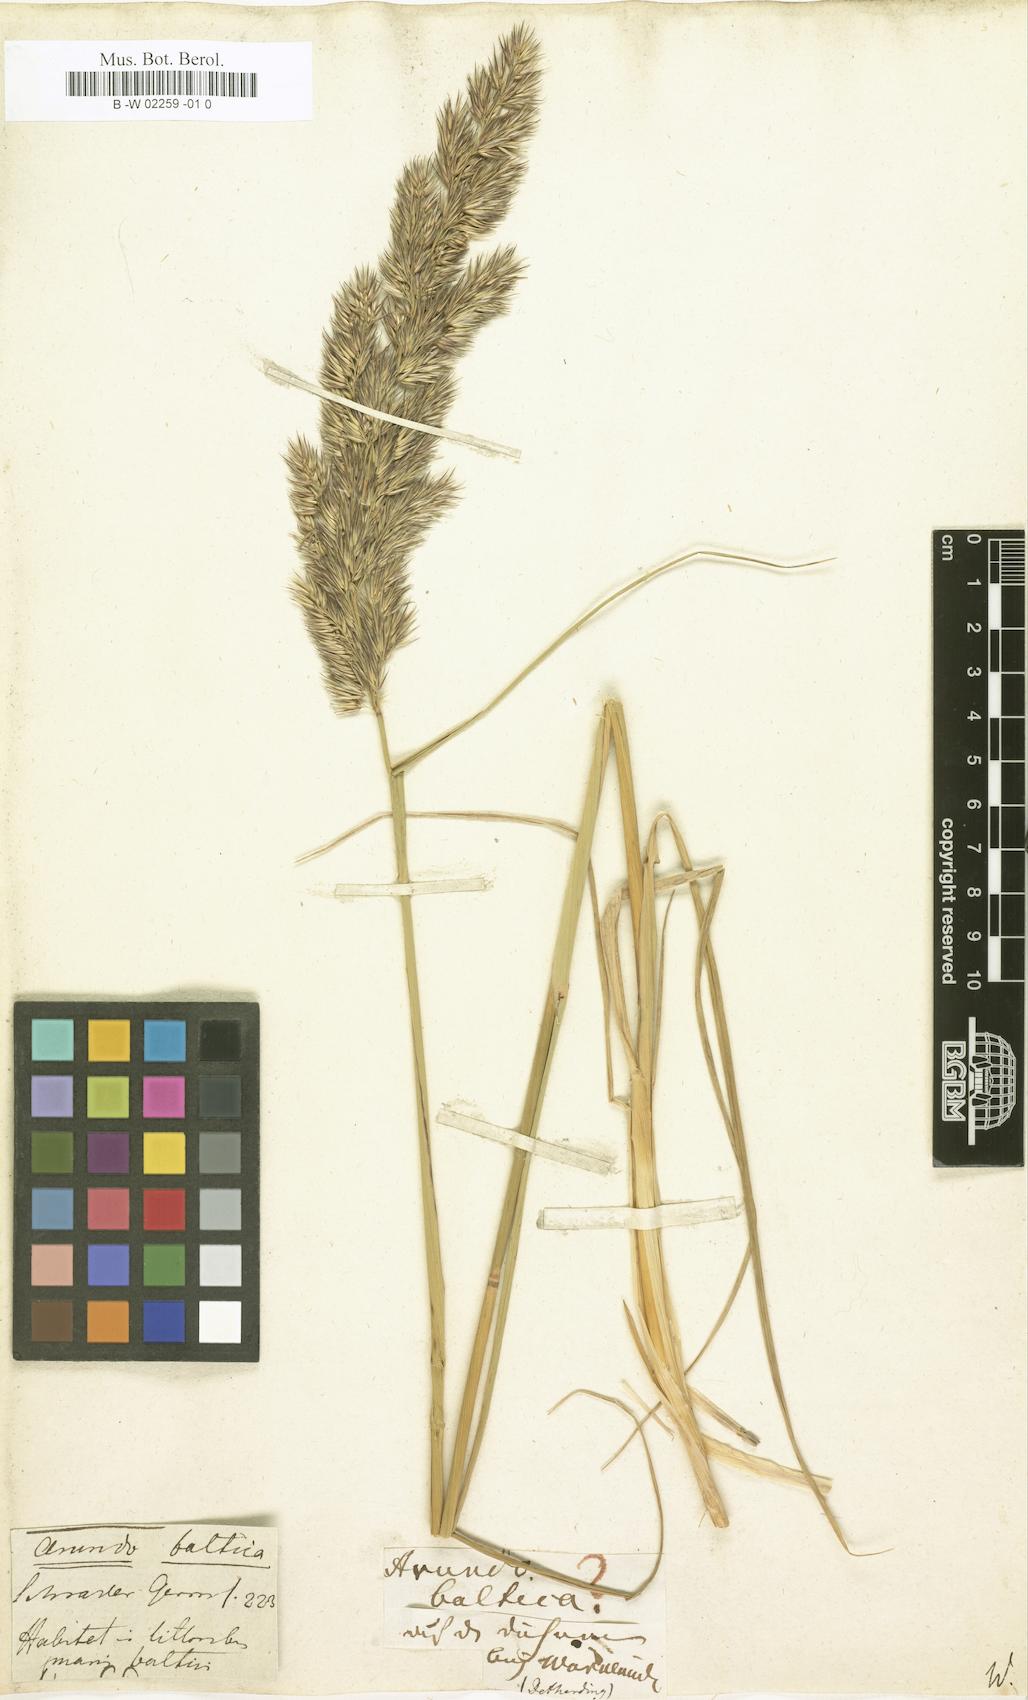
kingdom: Plantae
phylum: Tracheophyta
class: Liliopsida
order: Poales
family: Poaceae
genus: Calamagrostis
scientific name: Calamagrostis baltica
